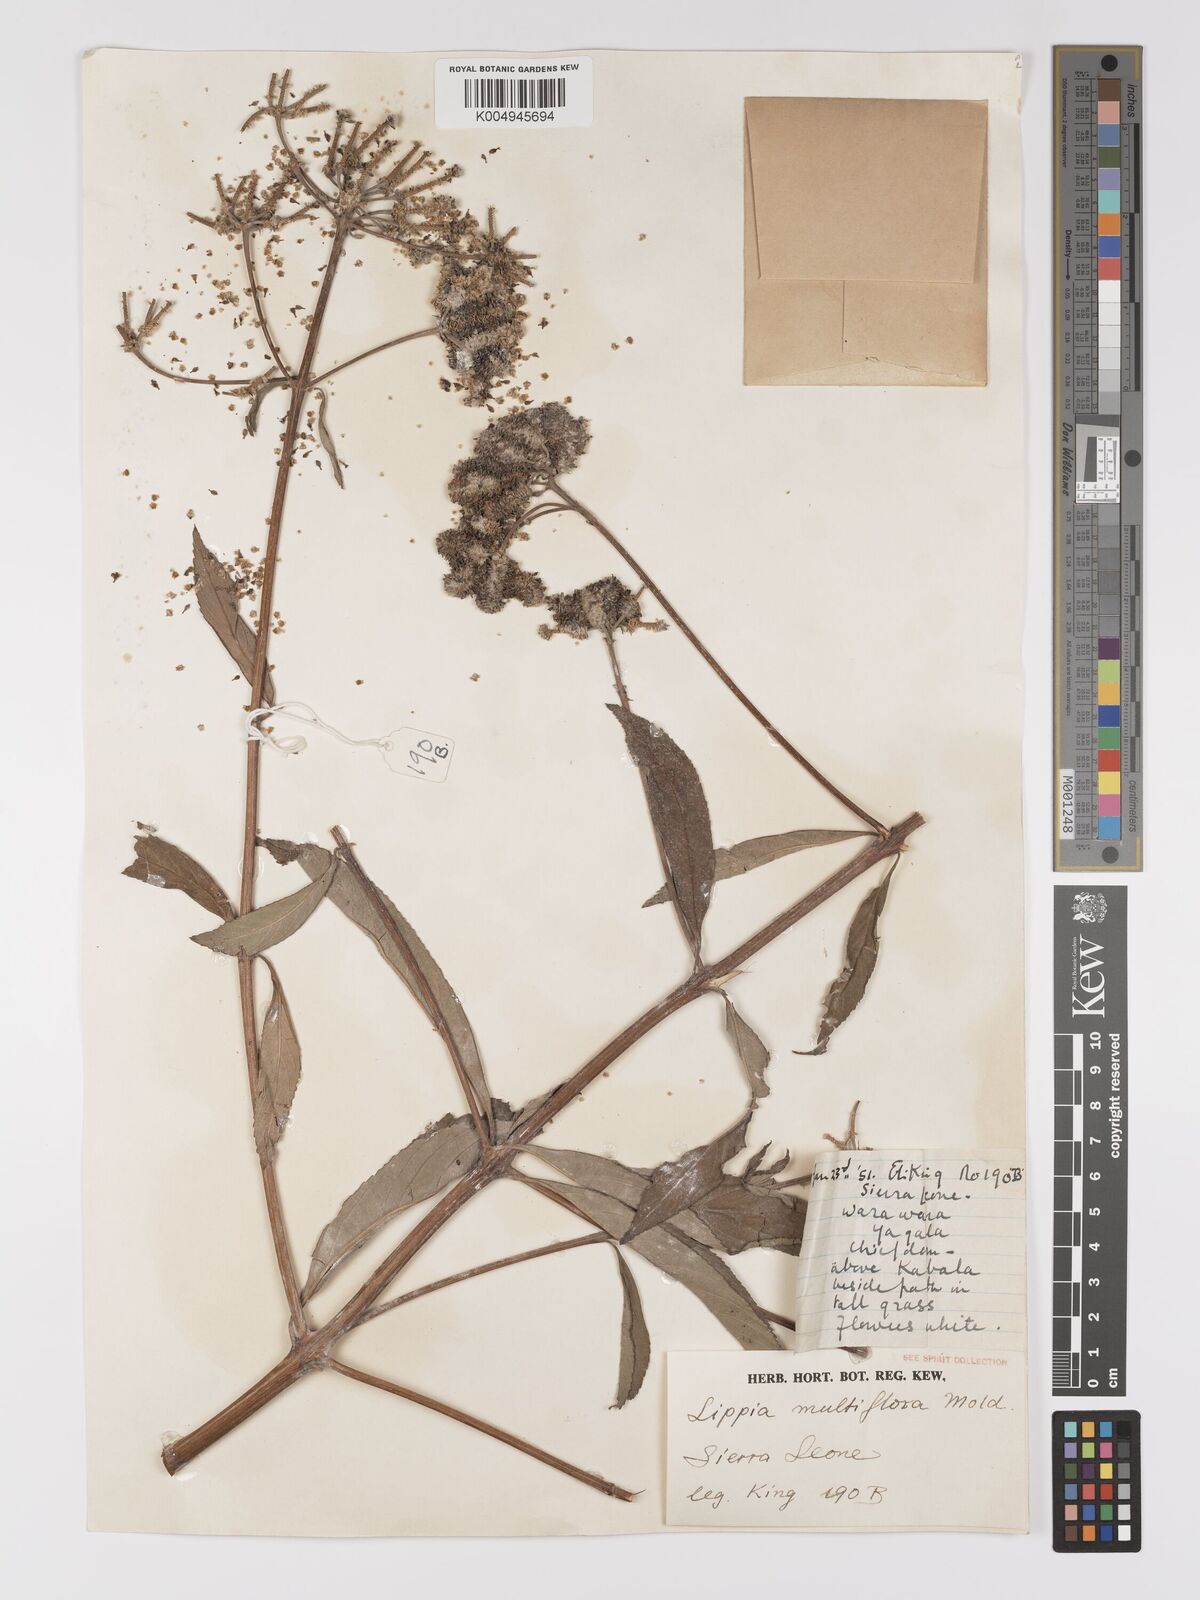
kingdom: Plantae
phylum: Tracheophyta
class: Magnoliopsida
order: Lamiales
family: Verbenaceae
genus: Lippia
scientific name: Lippia multiflora
